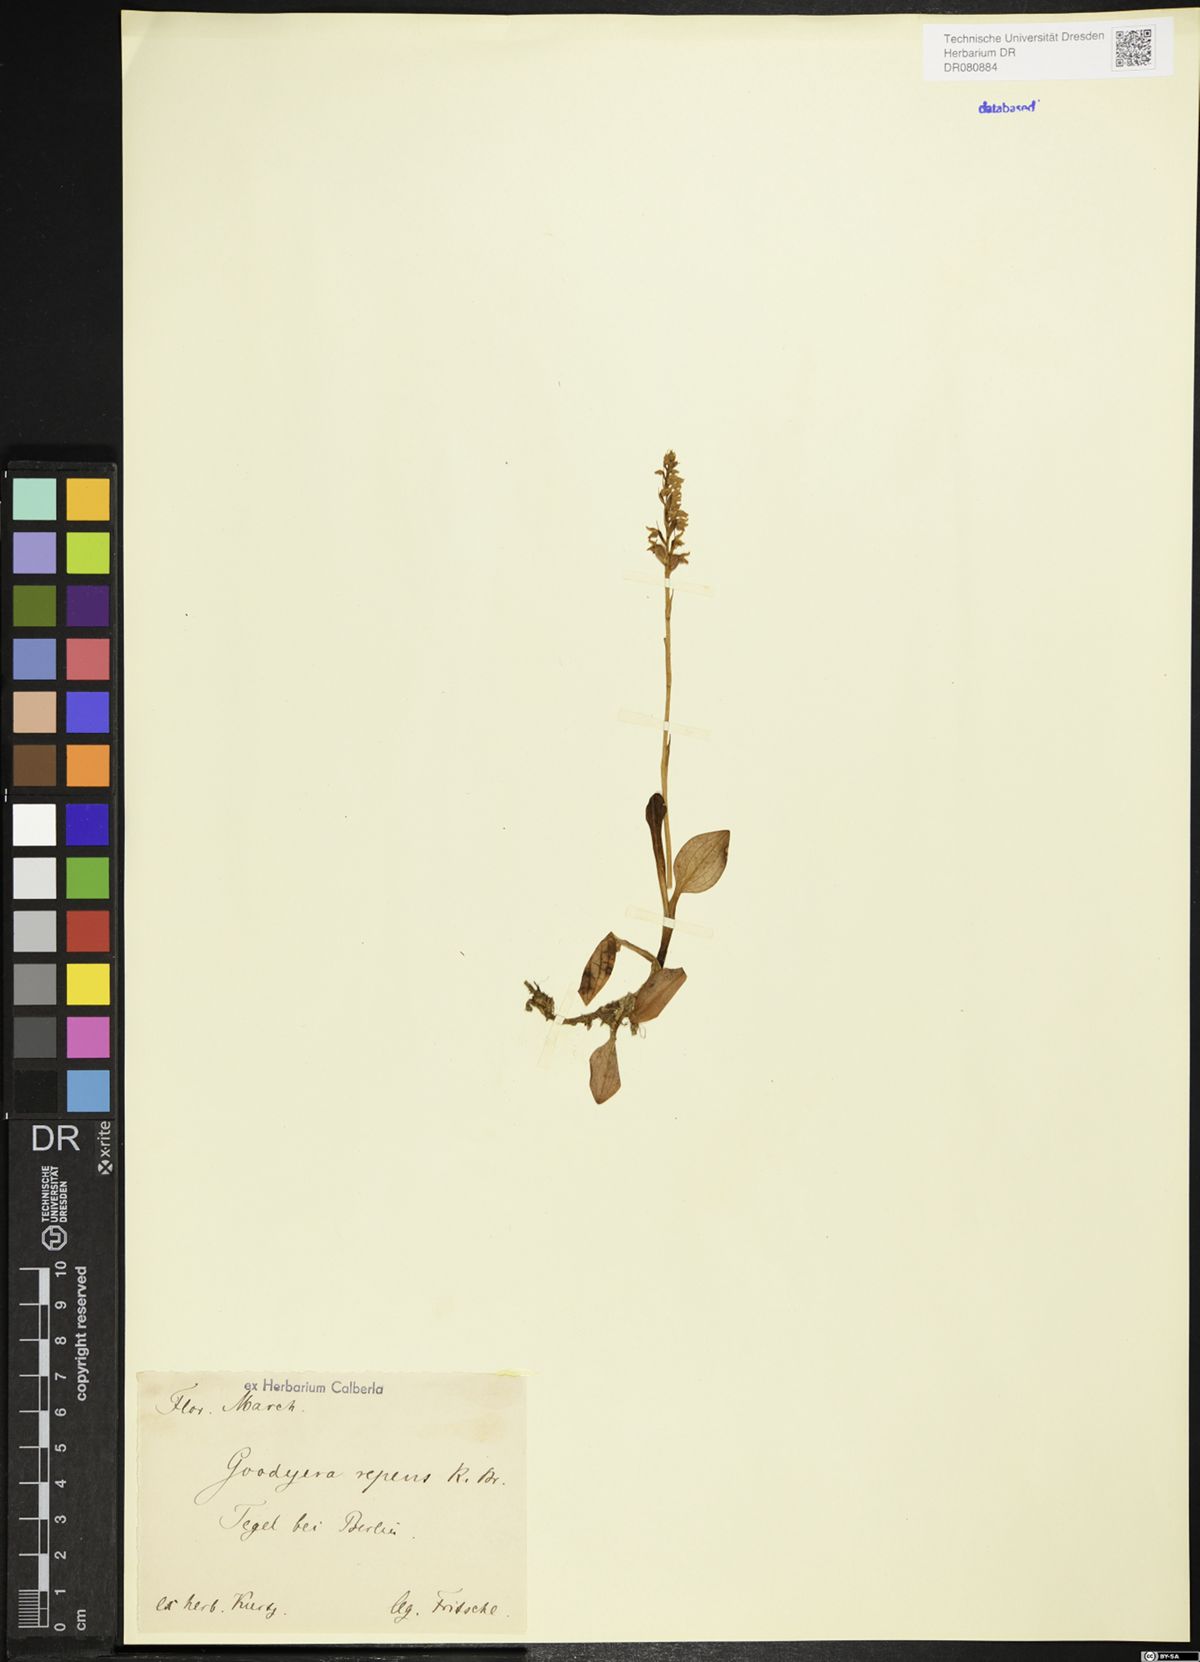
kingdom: Plantae
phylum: Tracheophyta
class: Liliopsida
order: Asparagales
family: Orchidaceae
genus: Goodyera
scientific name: Goodyera repens
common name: Creeping lady's-tresses
